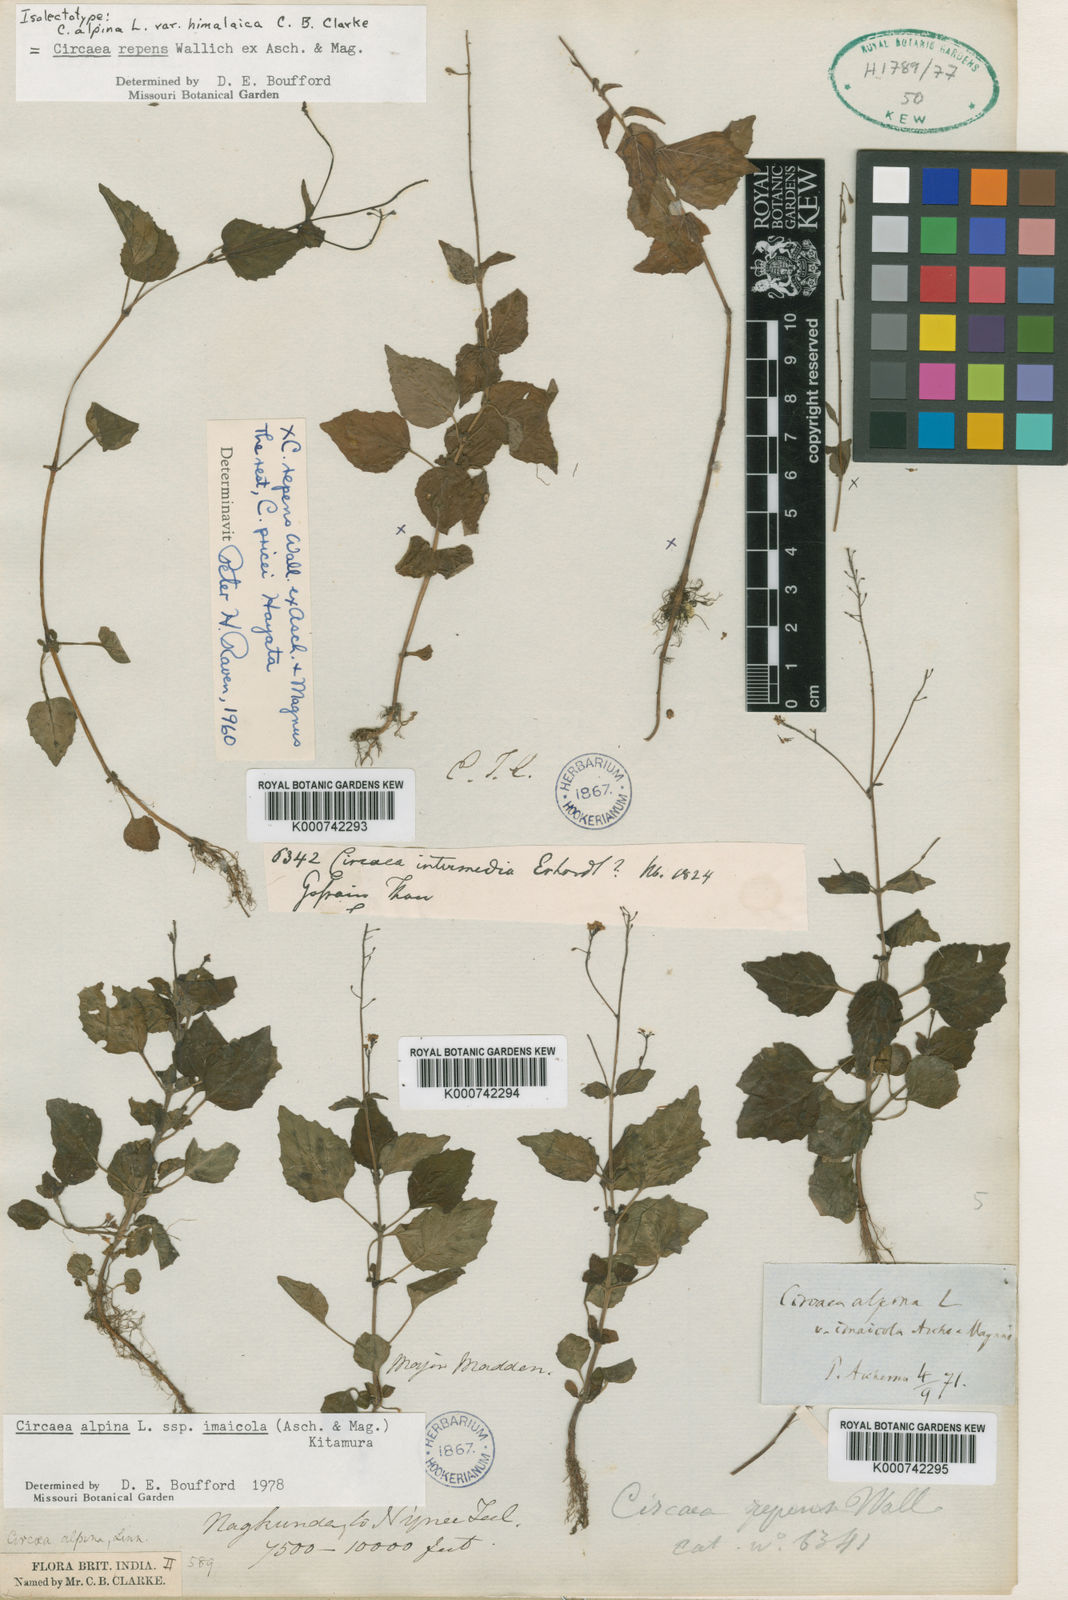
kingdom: Plantae
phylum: Tracheophyta
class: Magnoliopsida
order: Myrtales
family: Onagraceae
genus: Circaea
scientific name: Circaea
